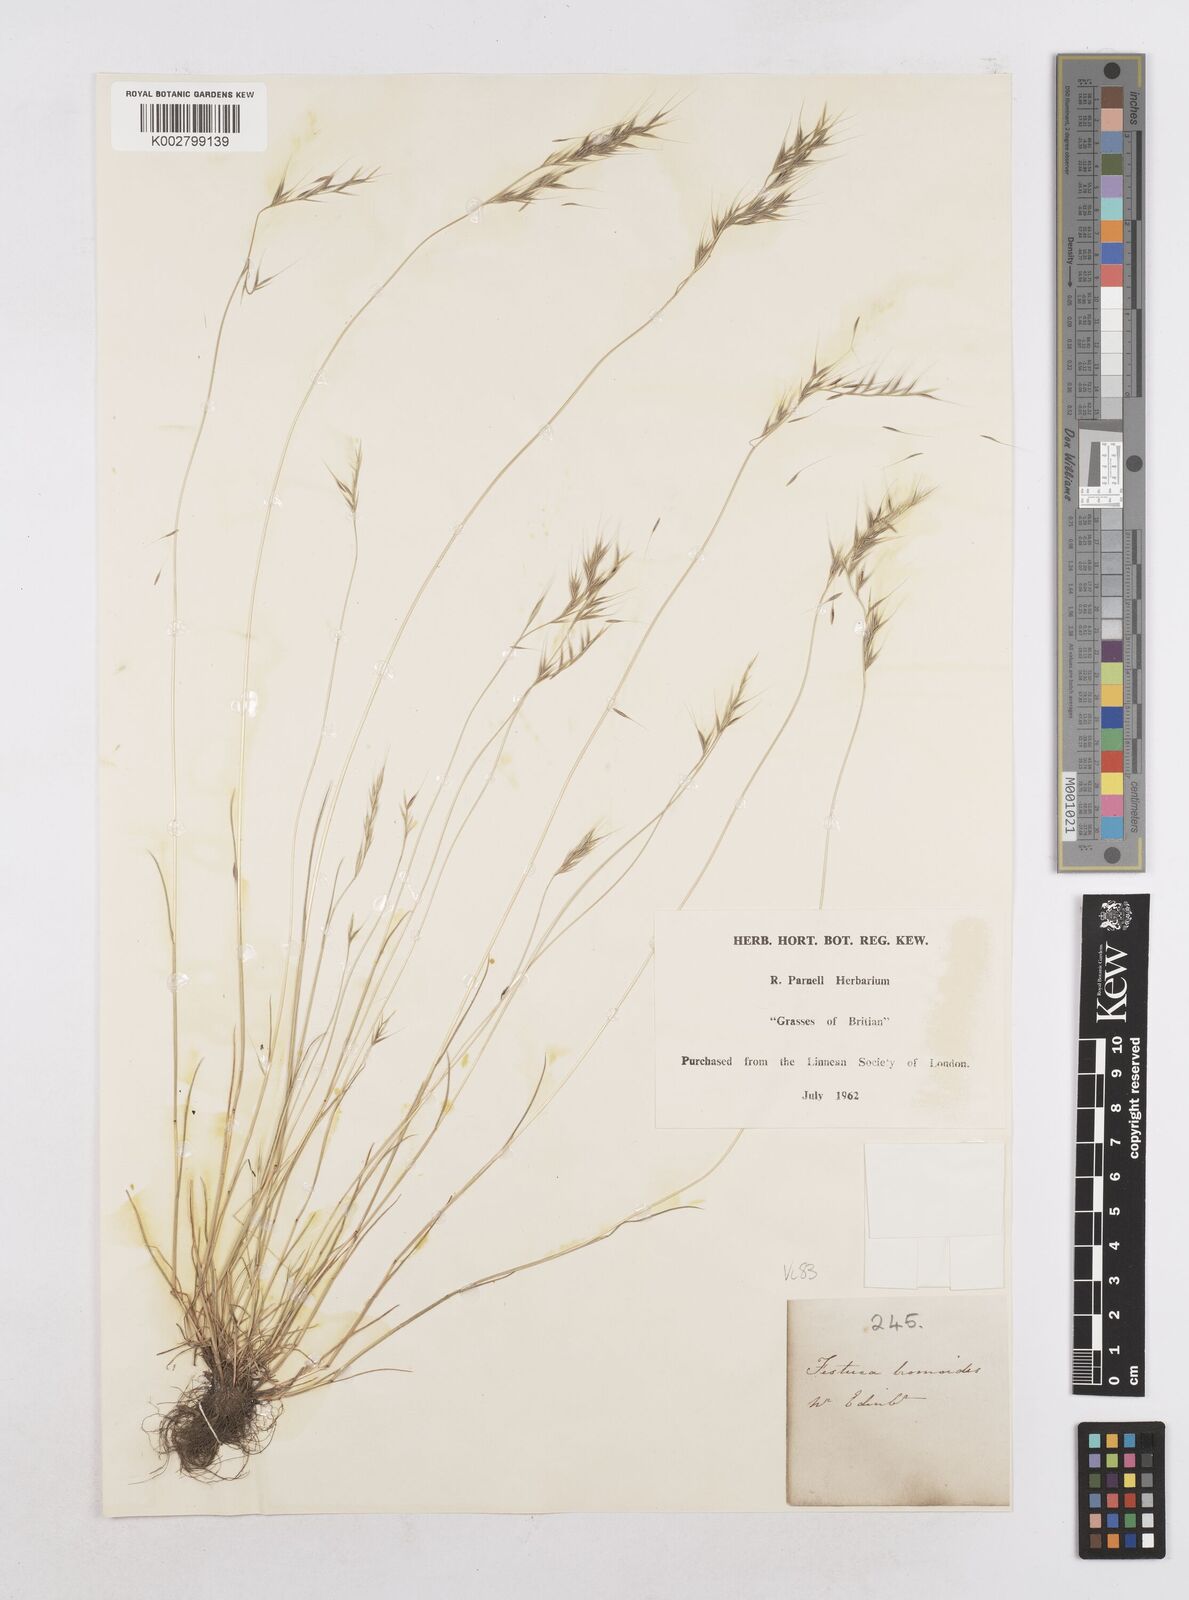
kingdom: Plantae
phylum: Tracheophyta
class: Liliopsida
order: Poales
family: Poaceae
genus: Festuca
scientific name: Festuca bromoides
